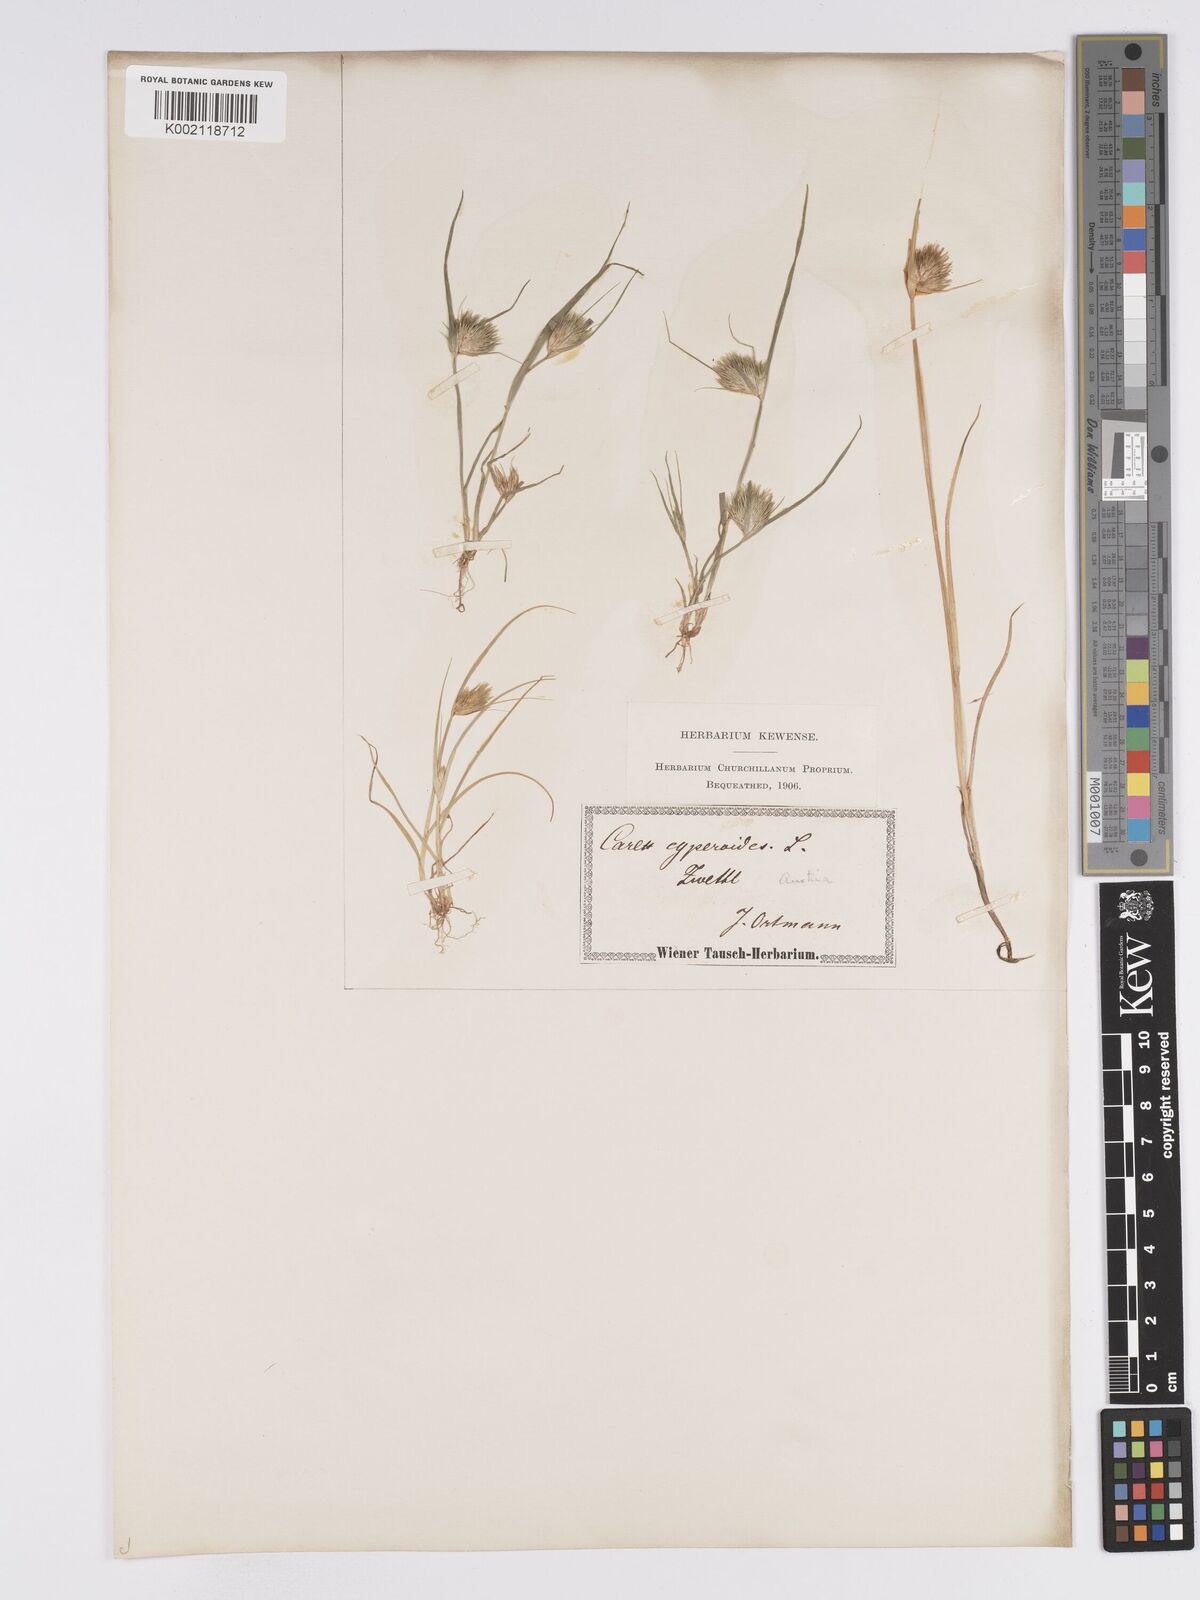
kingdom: Plantae
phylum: Tracheophyta
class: Liliopsida
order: Poales
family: Cyperaceae
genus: Carex
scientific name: Carex bohemica
